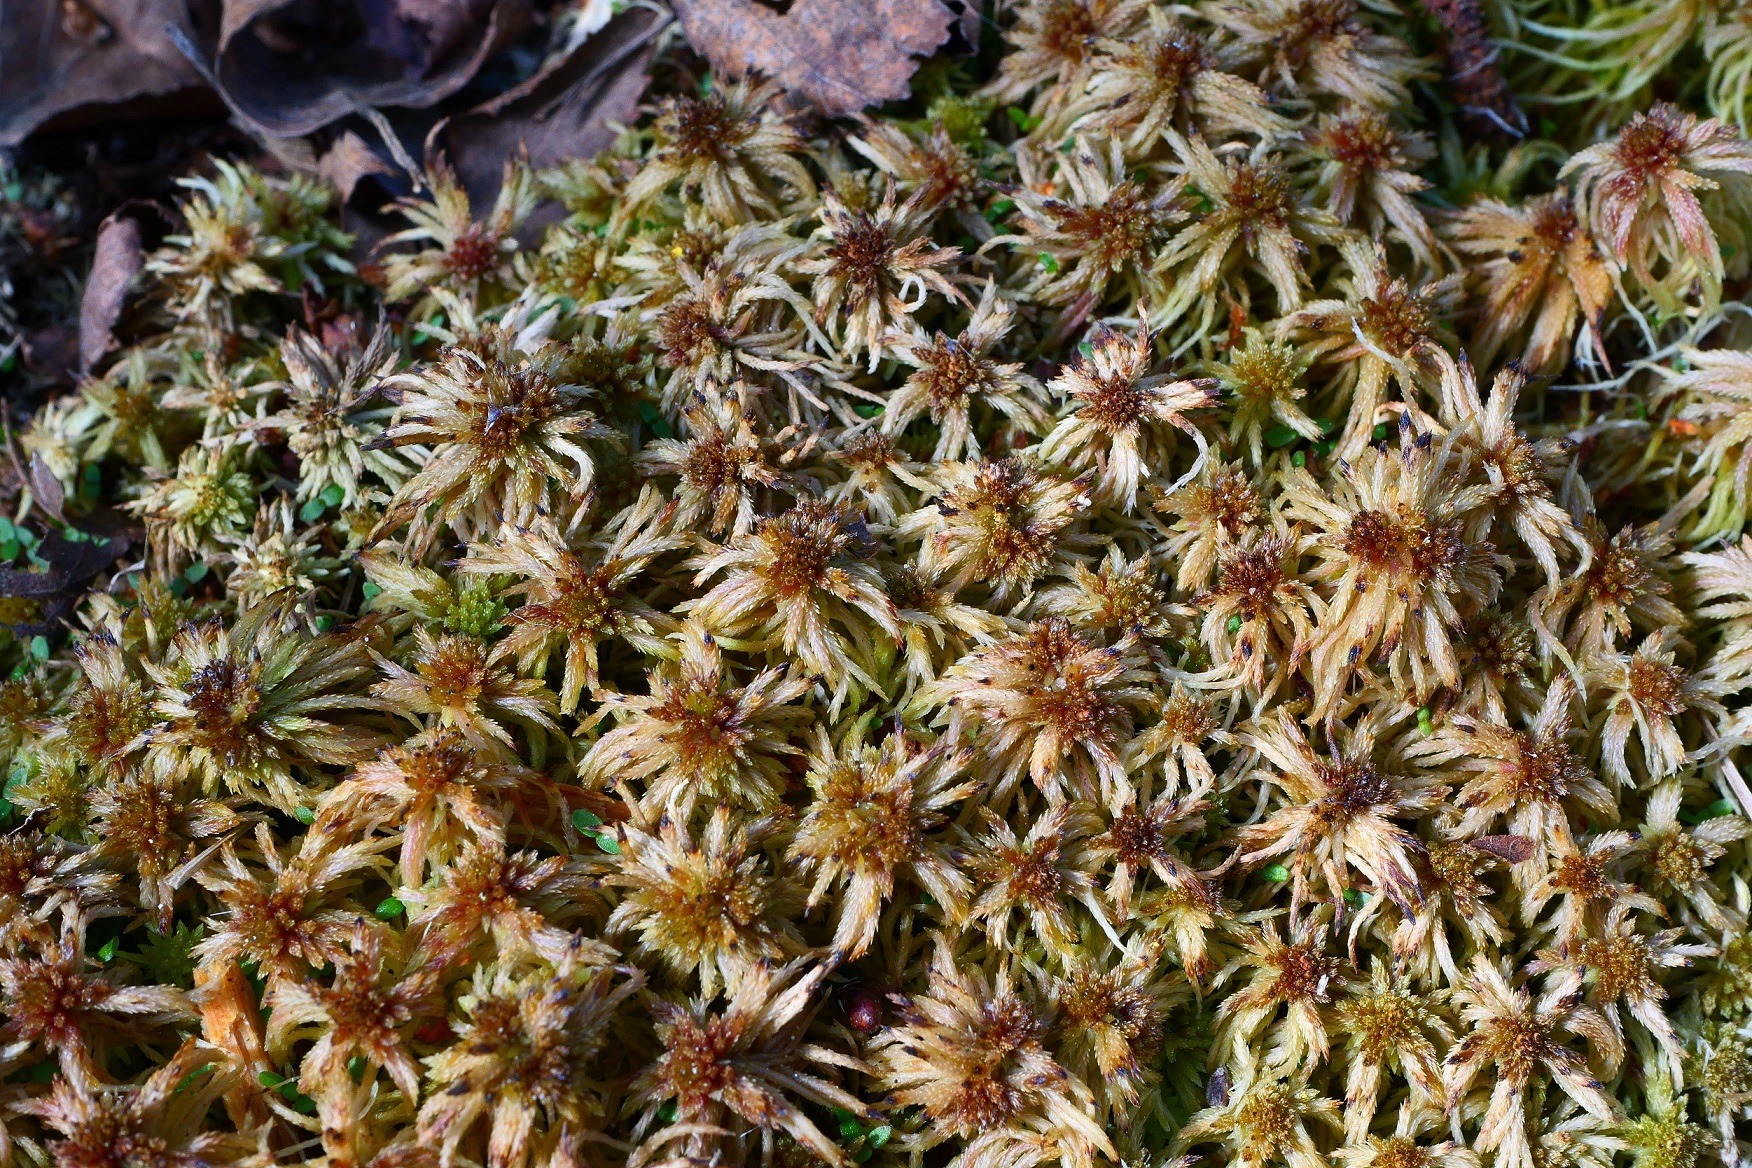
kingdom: Plantae
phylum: Bryophyta
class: Sphagnopsida
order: Sphagnales
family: Sphagnaceae
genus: Sphagnum
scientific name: Sphagnum russowii
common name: Spraglet tørvemos
